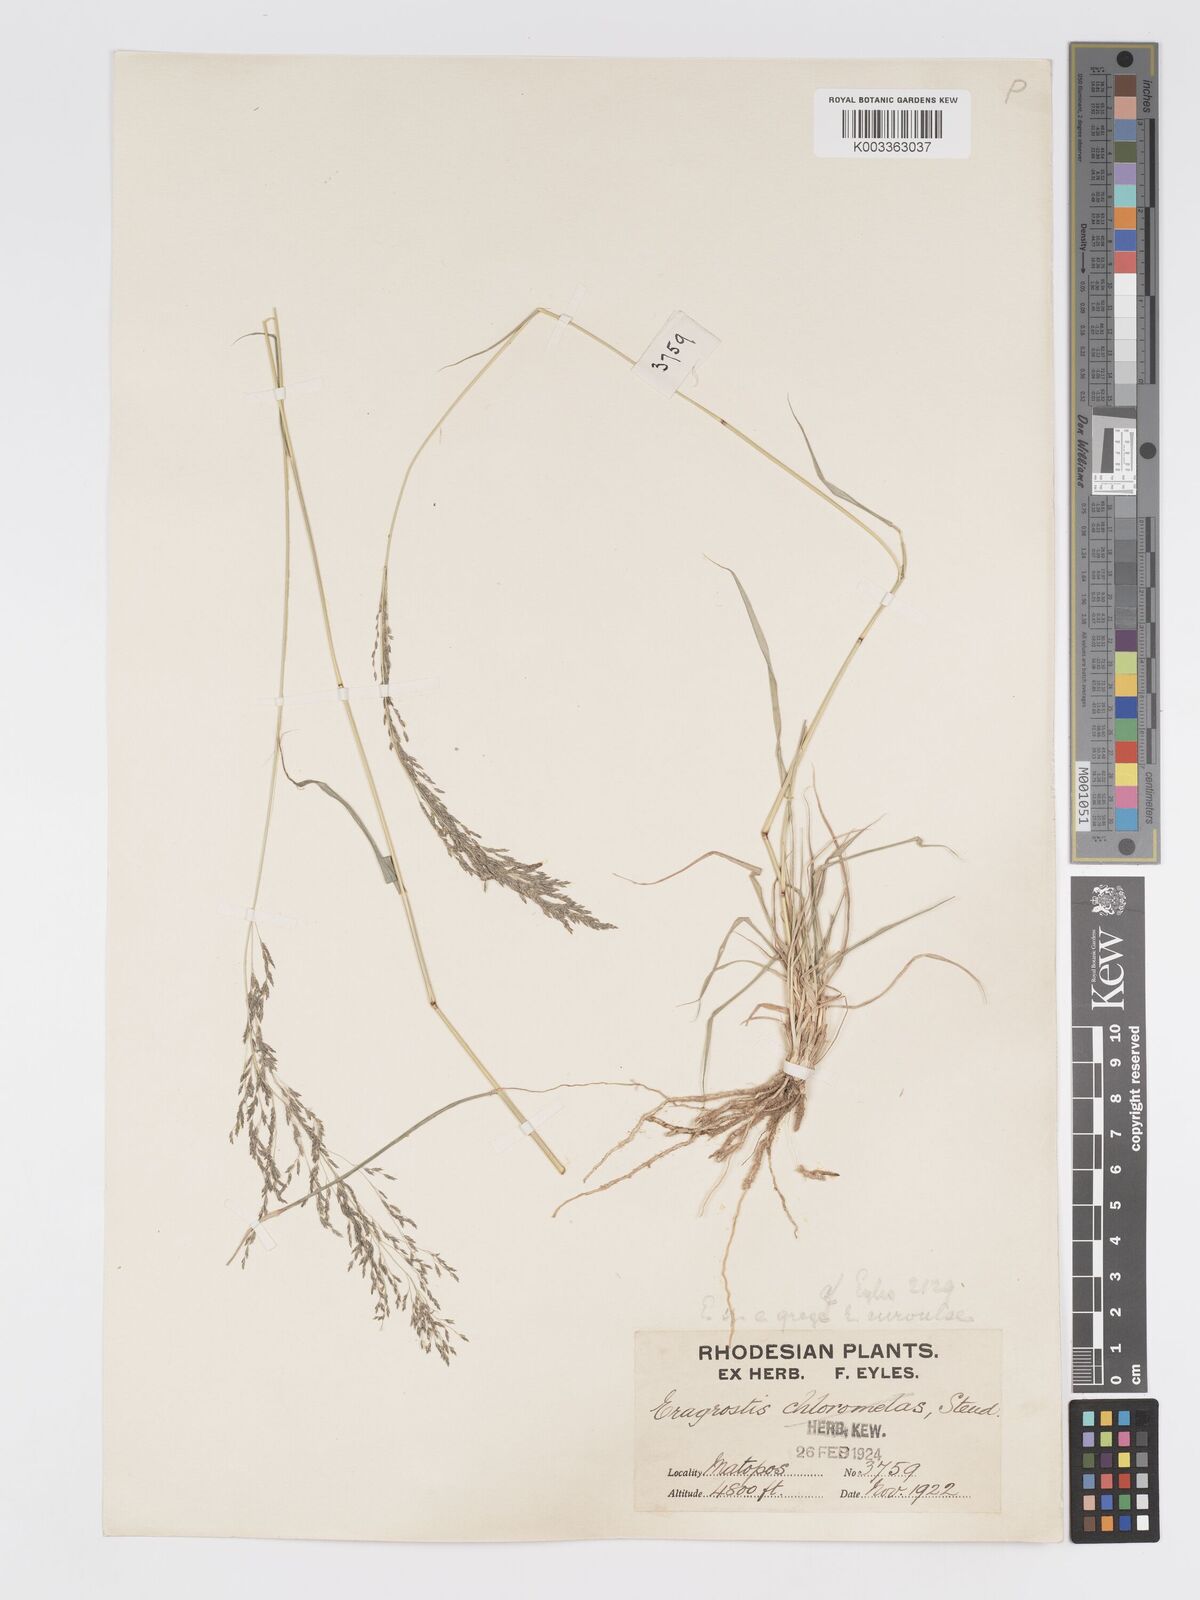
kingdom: Plantae
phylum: Tracheophyta
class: Liliopsida
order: Poales
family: Poaceae
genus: Eragrostis
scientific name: Eragrostis cylindriflora
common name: Cylinderflower lovegrass
